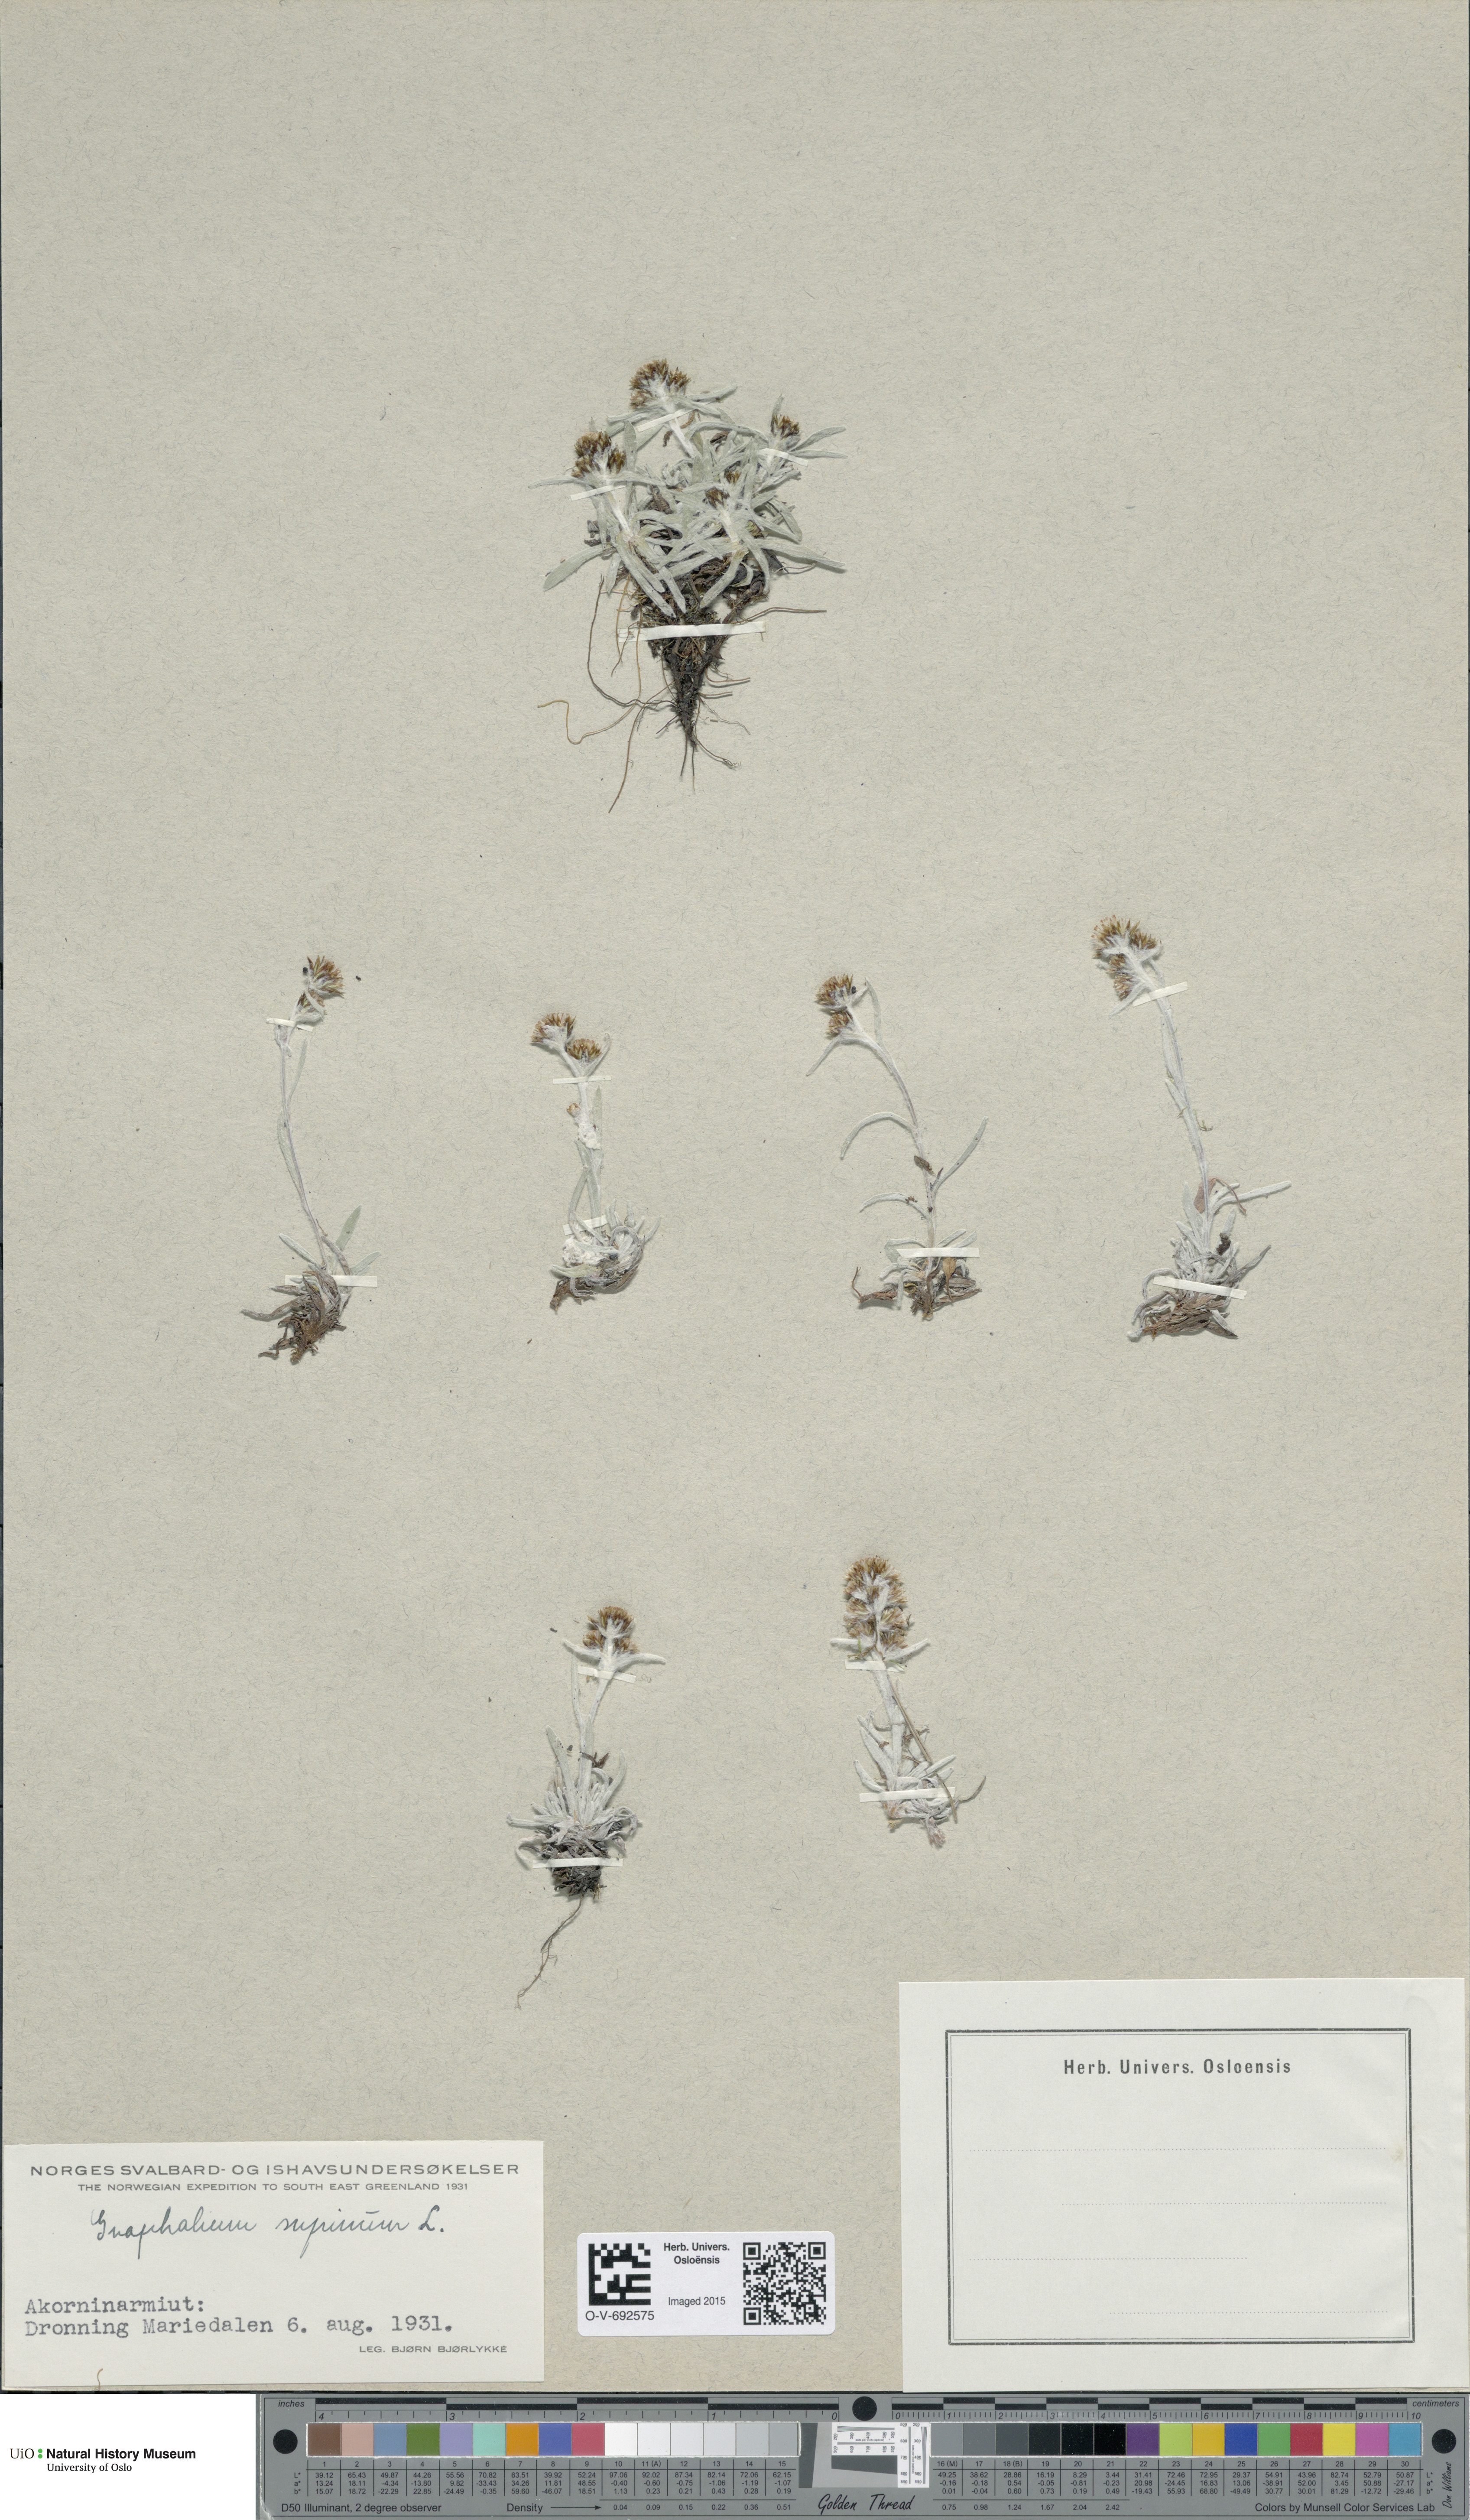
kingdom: Plantae
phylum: Tracheophyta
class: Magnoliopsida
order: Asterales
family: Asteraceae
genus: Omalotheca
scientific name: Omalotheca supina
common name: Alpine arctic-cudweed
